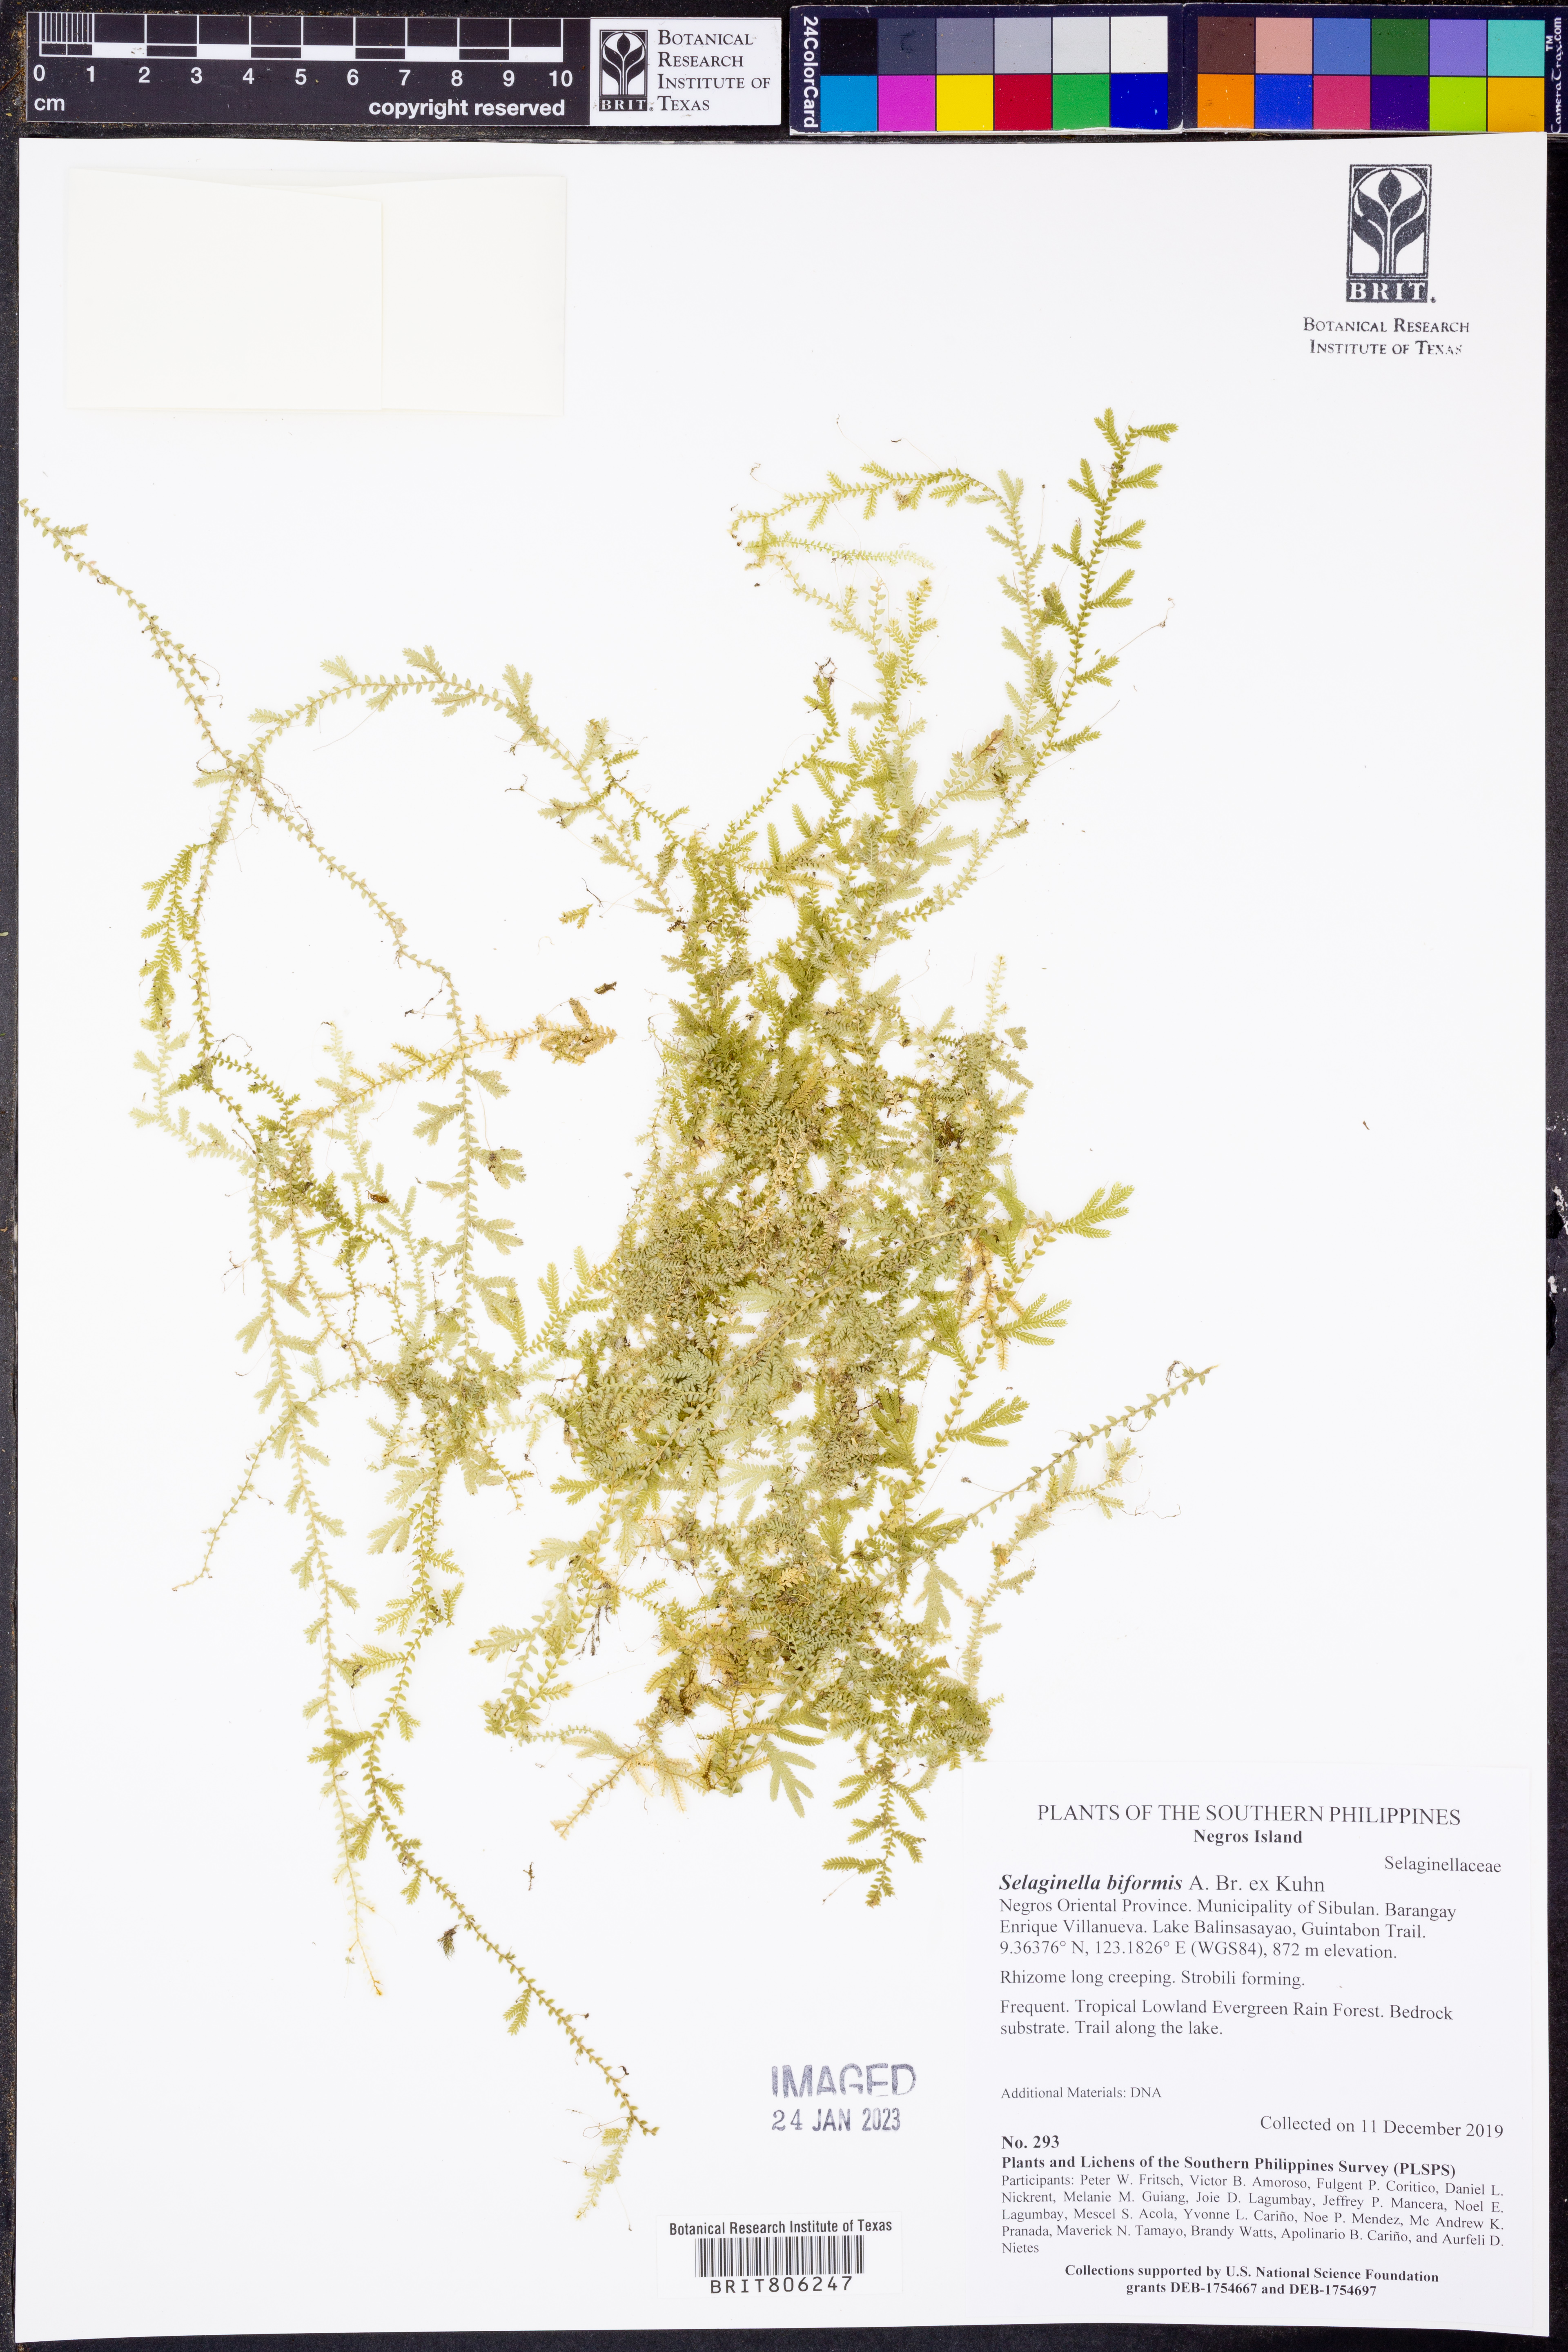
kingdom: Plantae
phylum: Tracheophyta
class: Lycopodiopsida
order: Selaginellales
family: Selaginellaceae
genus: Selaginella
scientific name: Selaginella biformis
